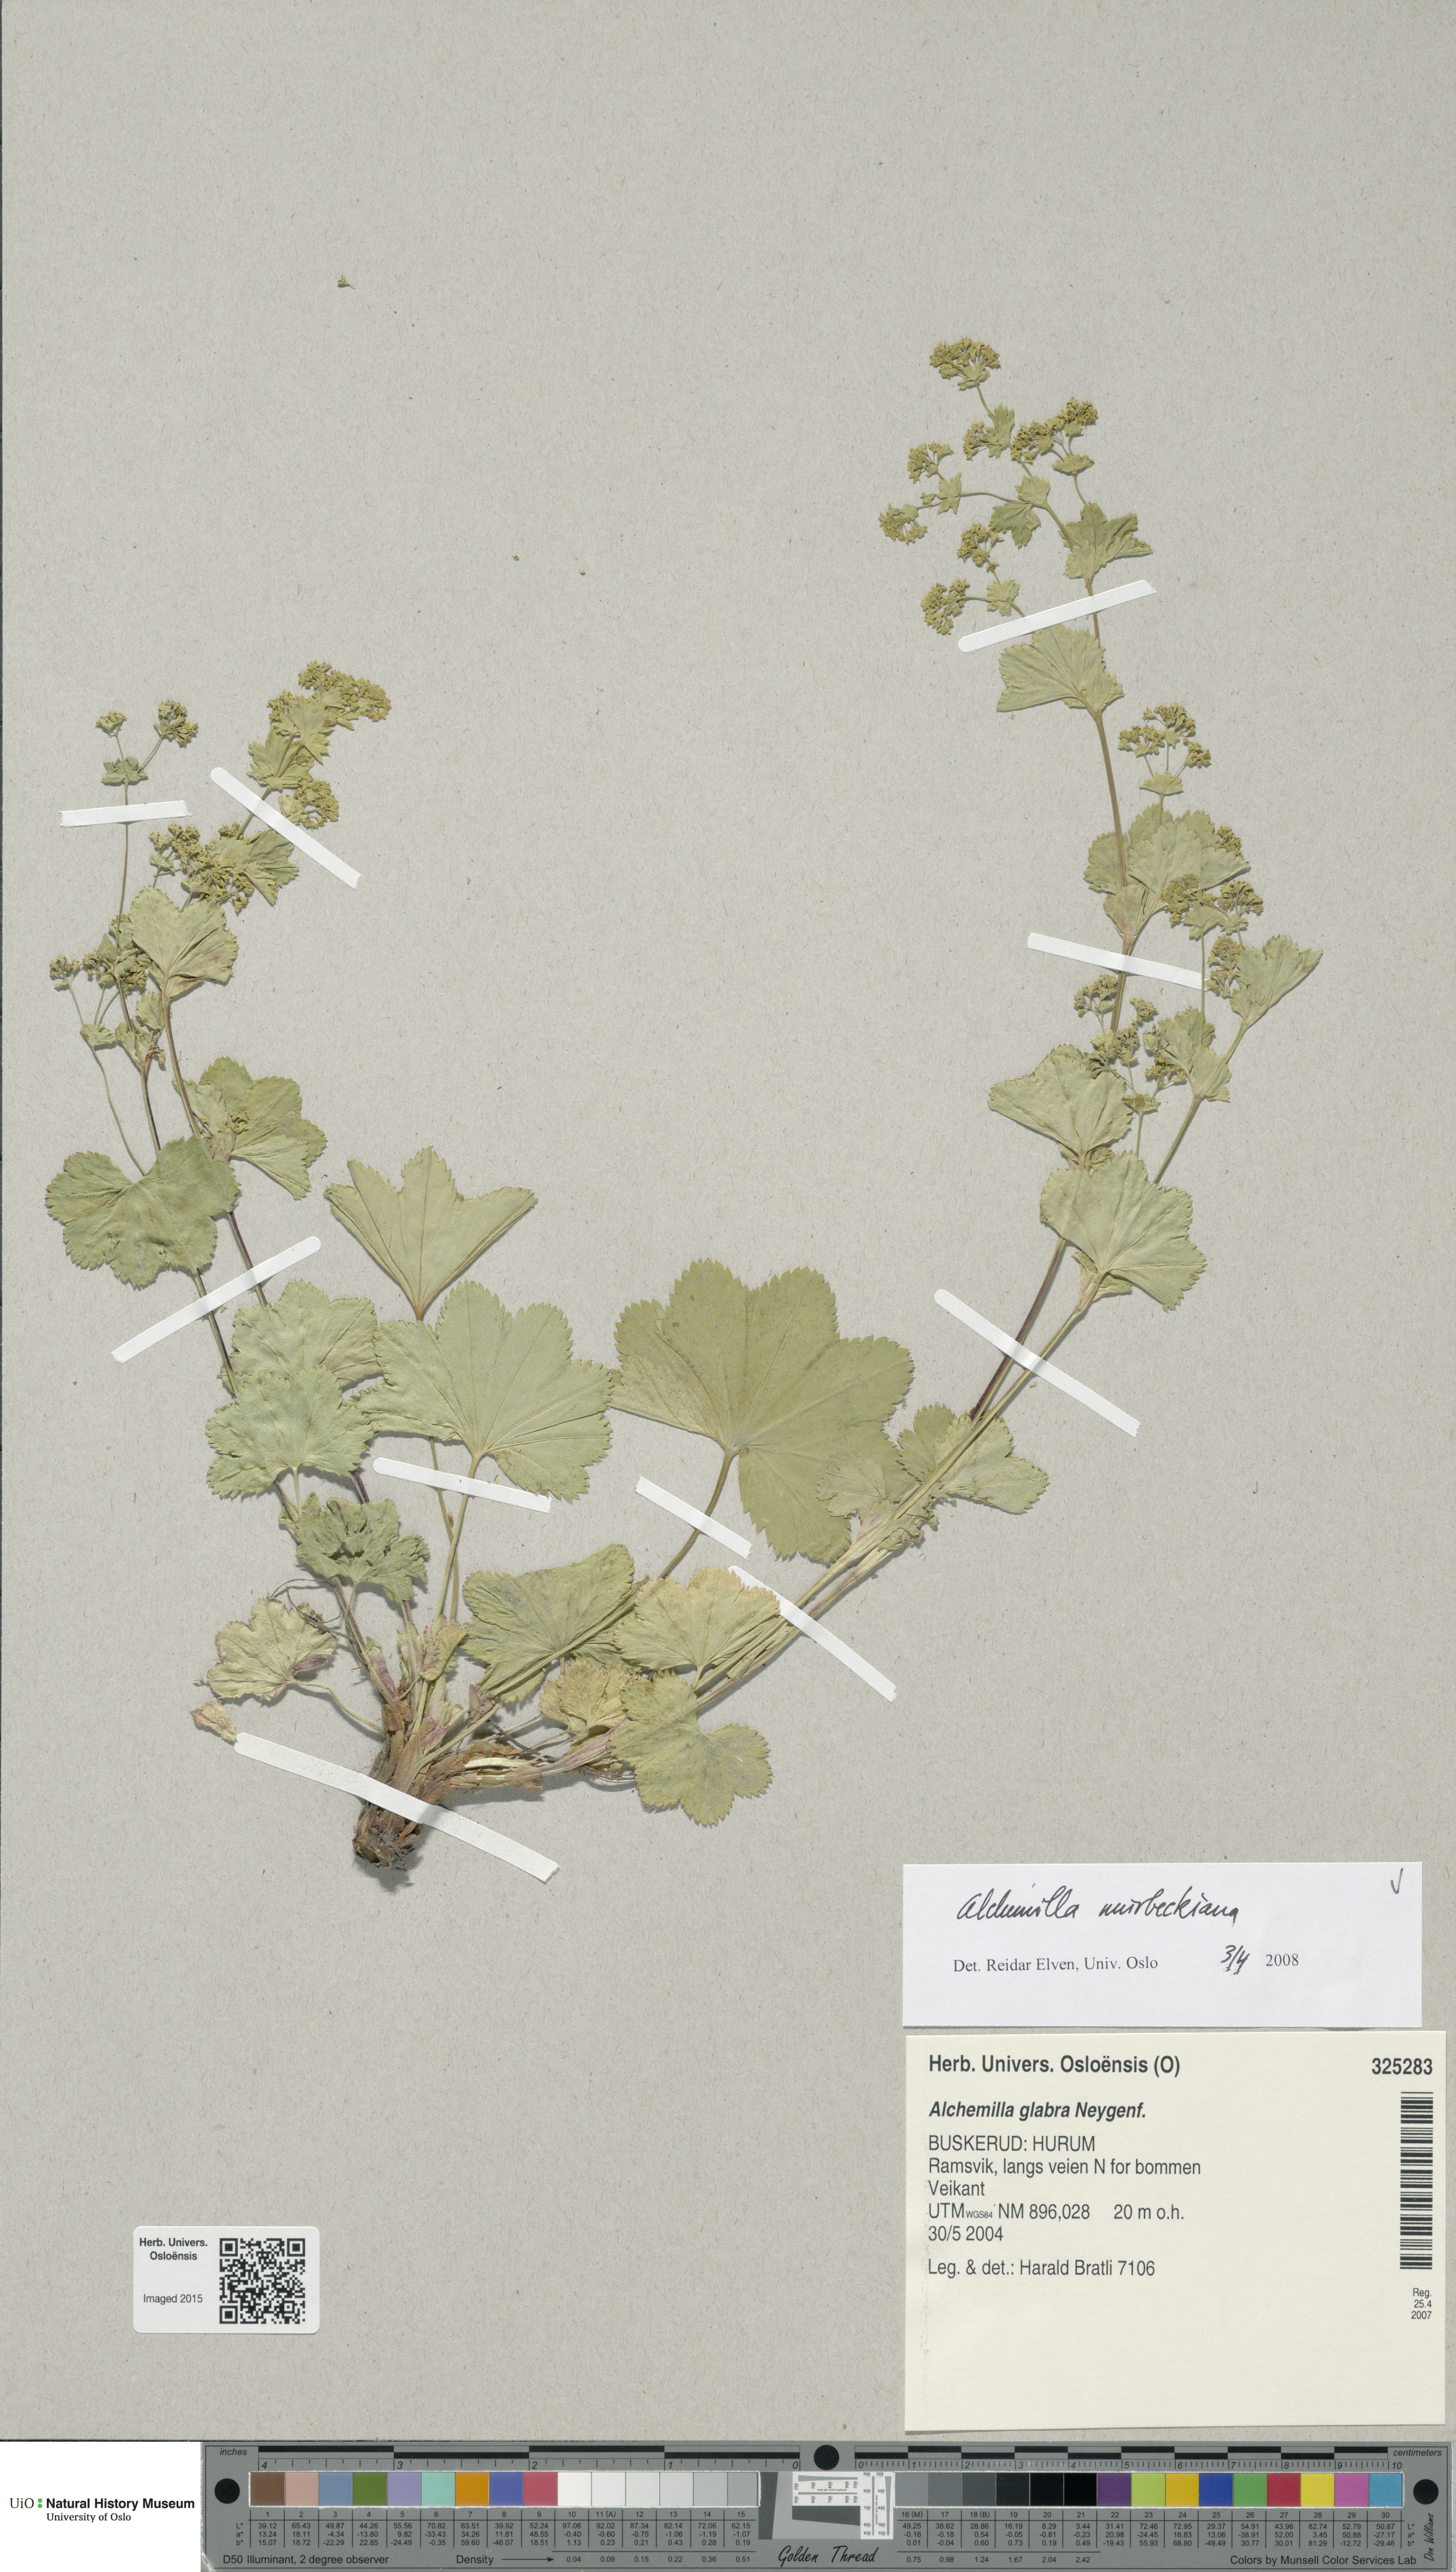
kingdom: Plantae
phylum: Tracheophyta
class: Magnoliopsida
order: Rosales
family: Rosaceae
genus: Alchemilla
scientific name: Alchemilla murbeckiana
